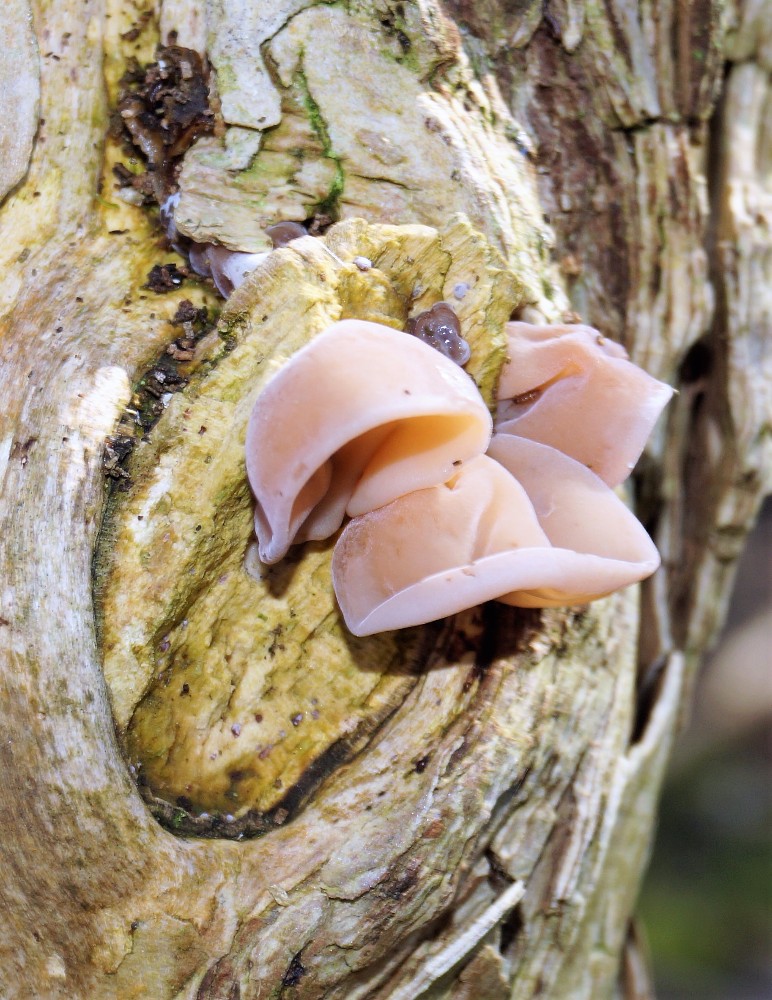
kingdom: Fungi
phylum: Basidiomycota
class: Agaricomycetes
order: Auriculariales
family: Auriculariaceae
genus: Auricularia
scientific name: Auricularia auricula-judae
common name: almindelig judasøre
